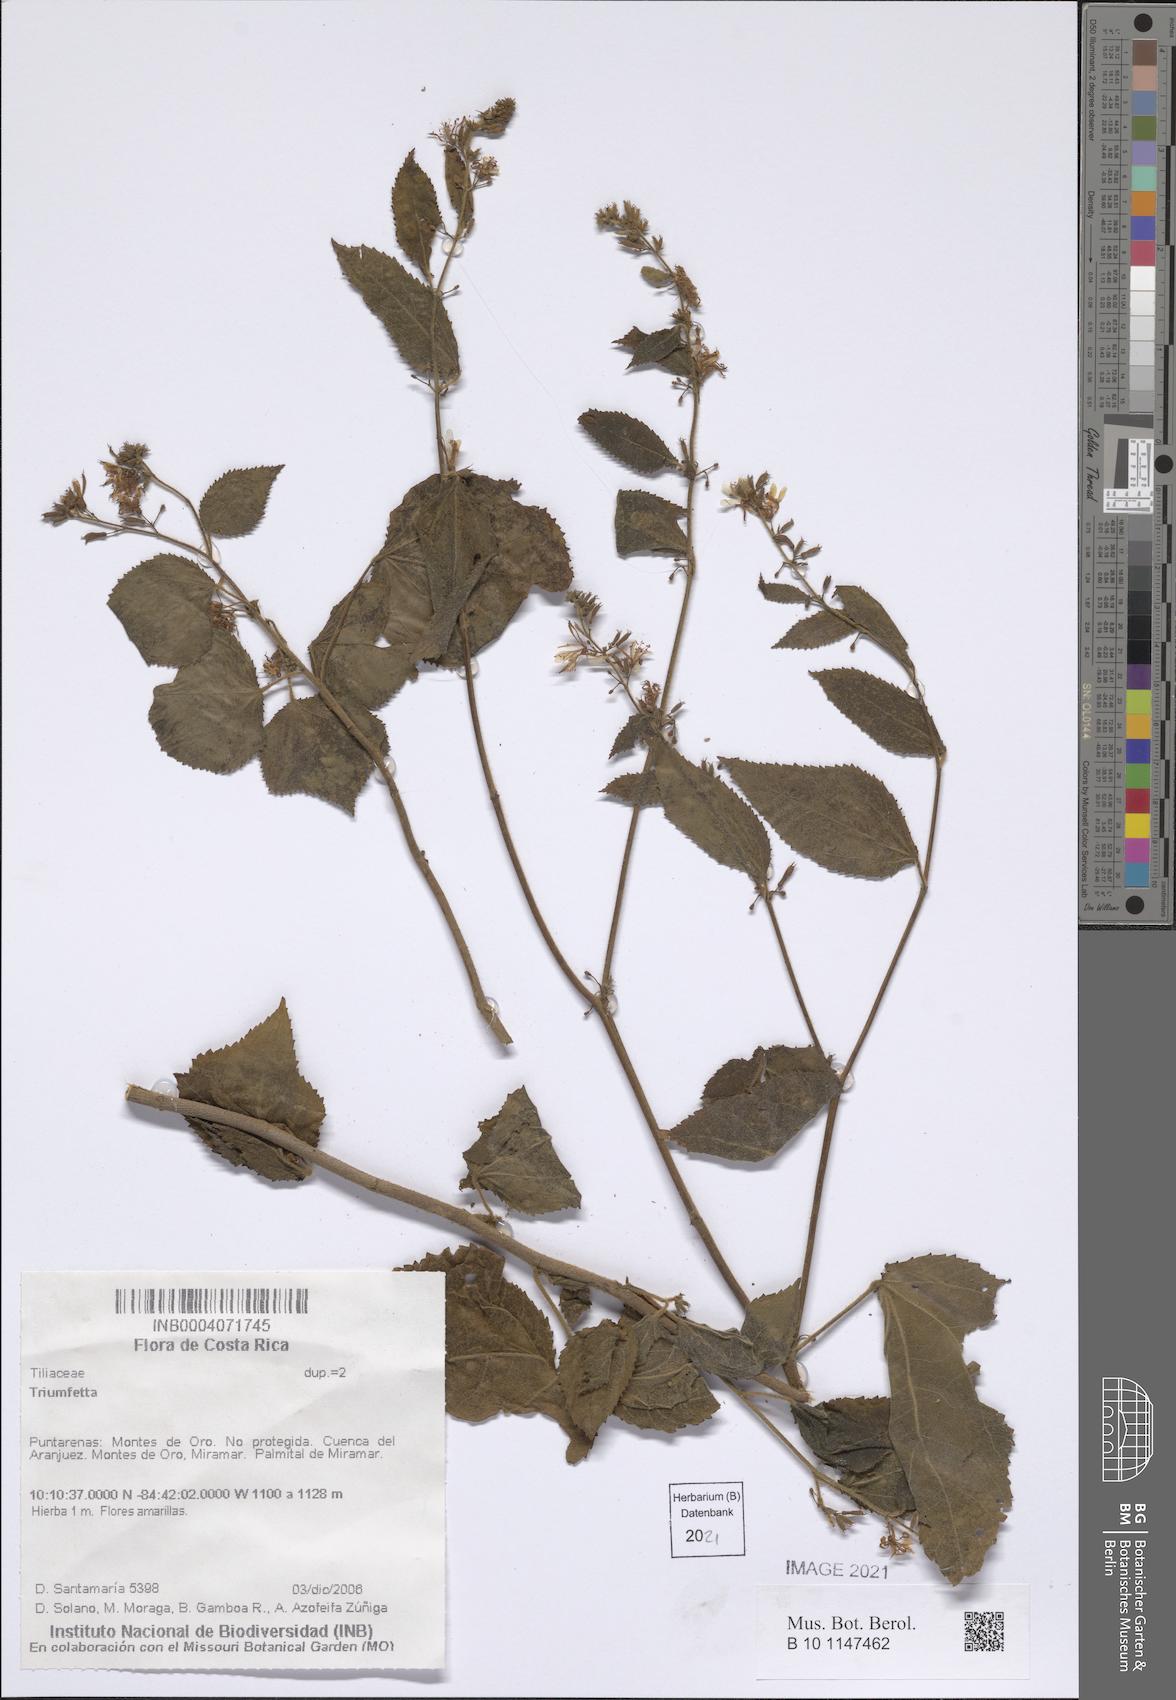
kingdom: Plantae
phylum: Tracheophyta
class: Magnoliopsida
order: Malvales
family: Malvaceae
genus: Triumfetta
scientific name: Triumfetta
